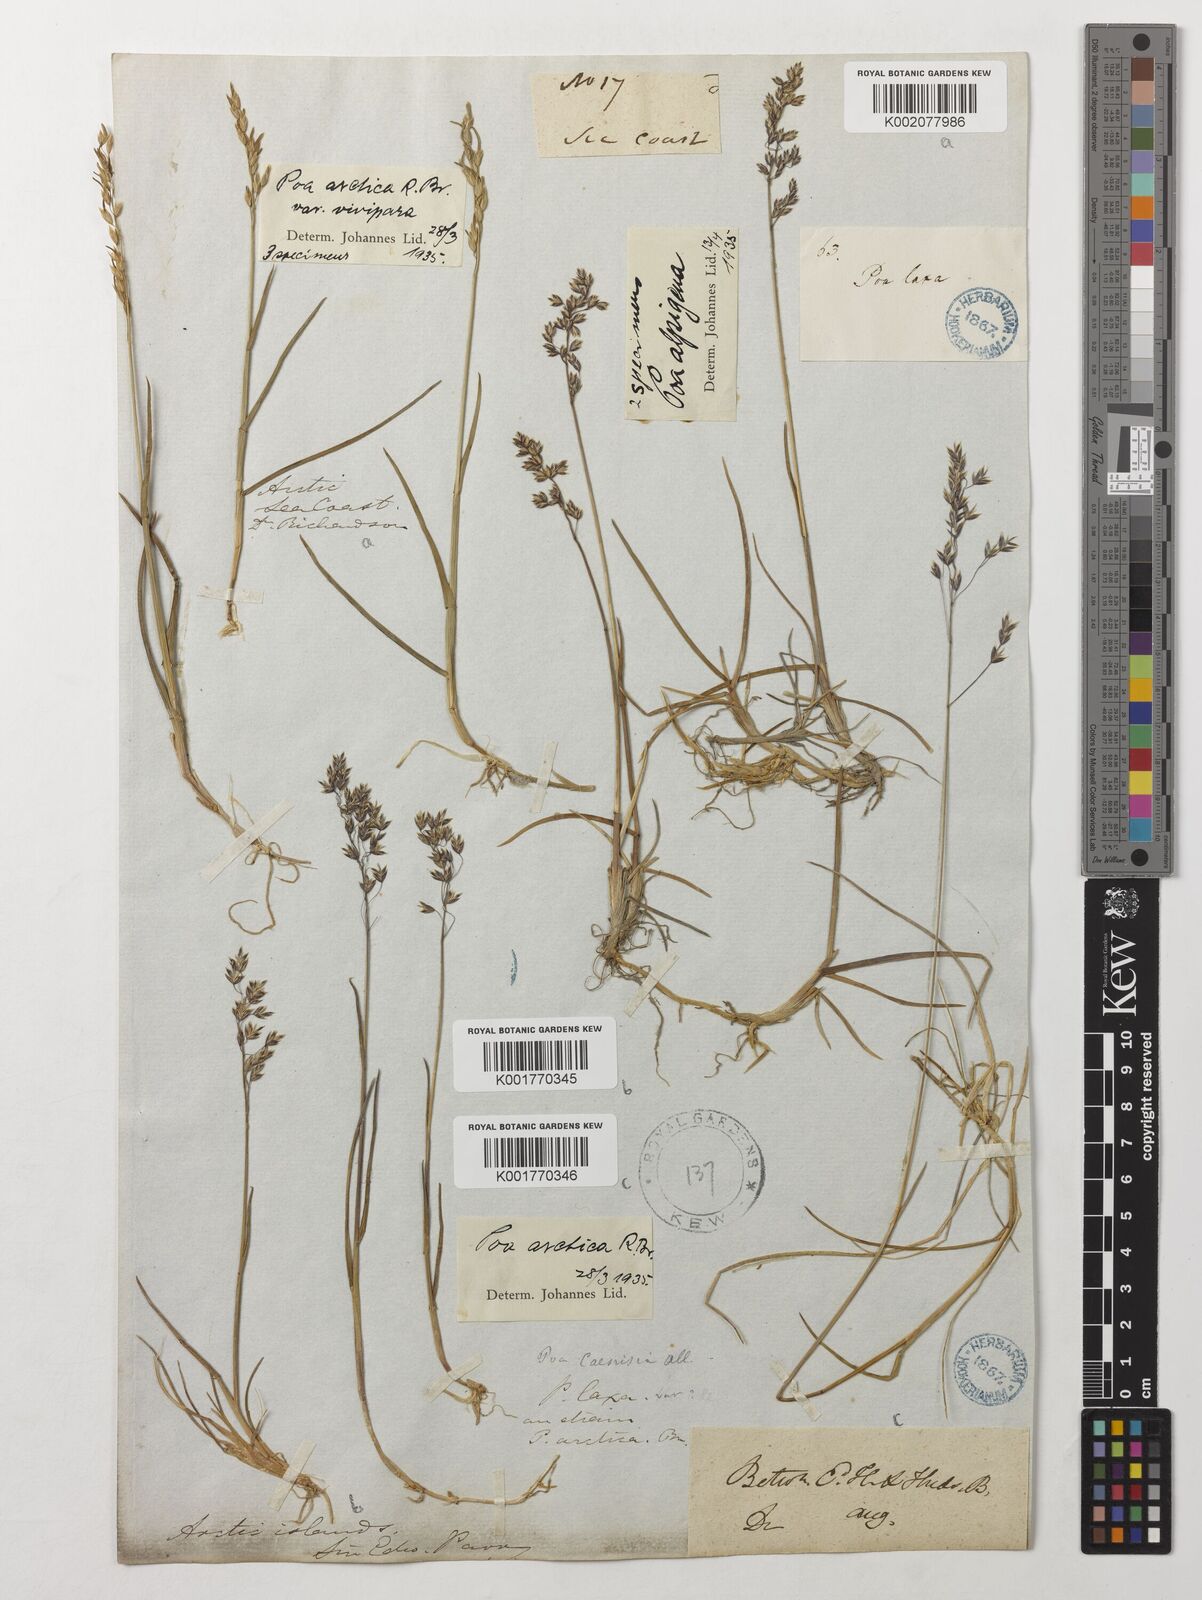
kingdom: Plantae
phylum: Tracheophyta
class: Liliopsida
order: Poales
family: Poaceae
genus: Poa
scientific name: Poa arctica
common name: Arctic bluegrass
